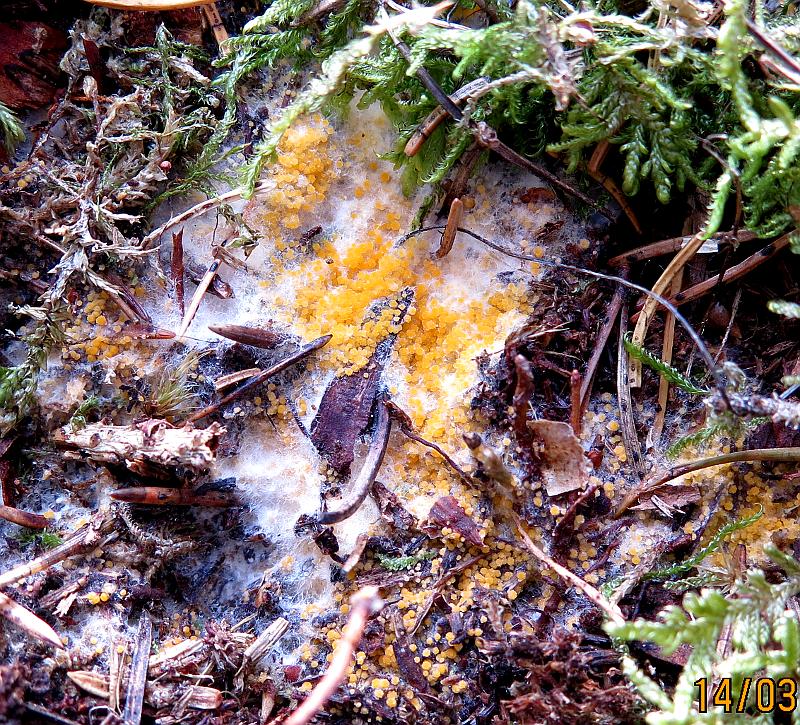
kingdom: Fungi
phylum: Ascomycota
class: Pezizomycetes
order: Pezizales
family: Pyronemataceae
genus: Byssonectria
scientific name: Byssonectria terrestris
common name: hjortebæger
